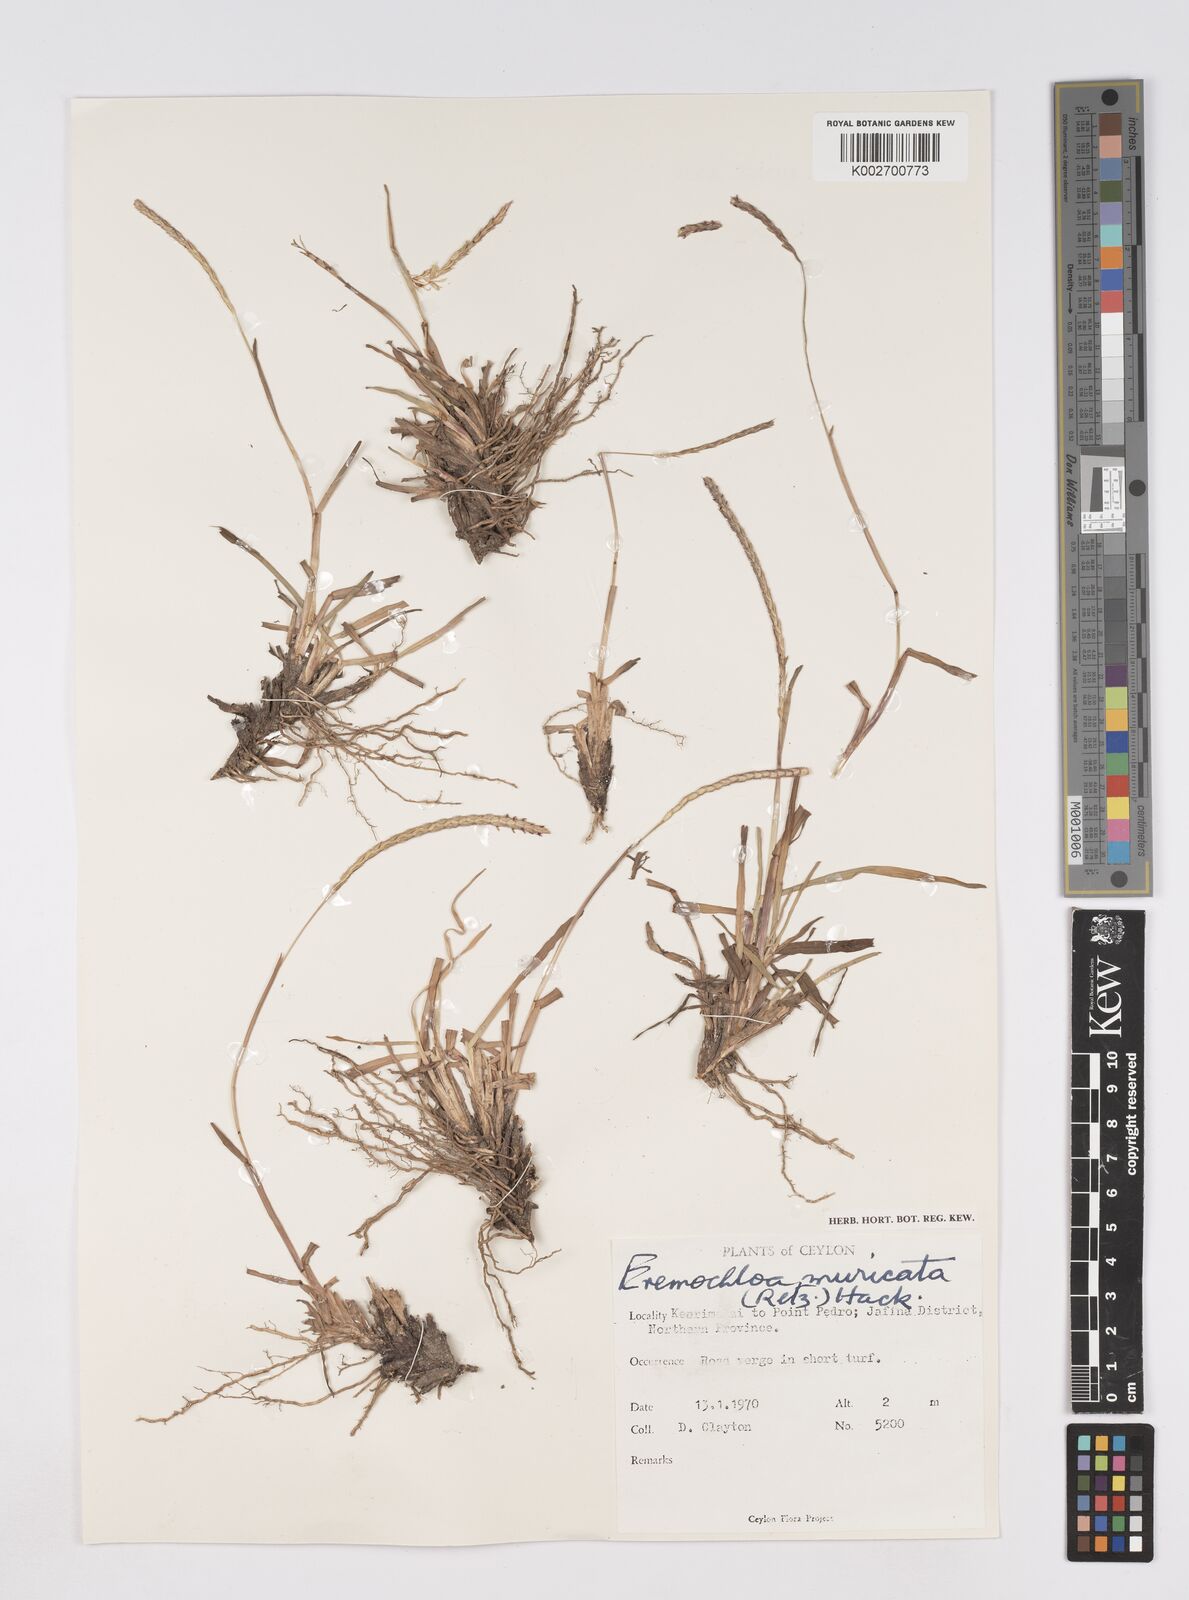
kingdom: Plantae
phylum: Tracheophyta
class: Liliopsida
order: Poales
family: Poaceae
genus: Eremochloa
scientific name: Eremochloa muricata
